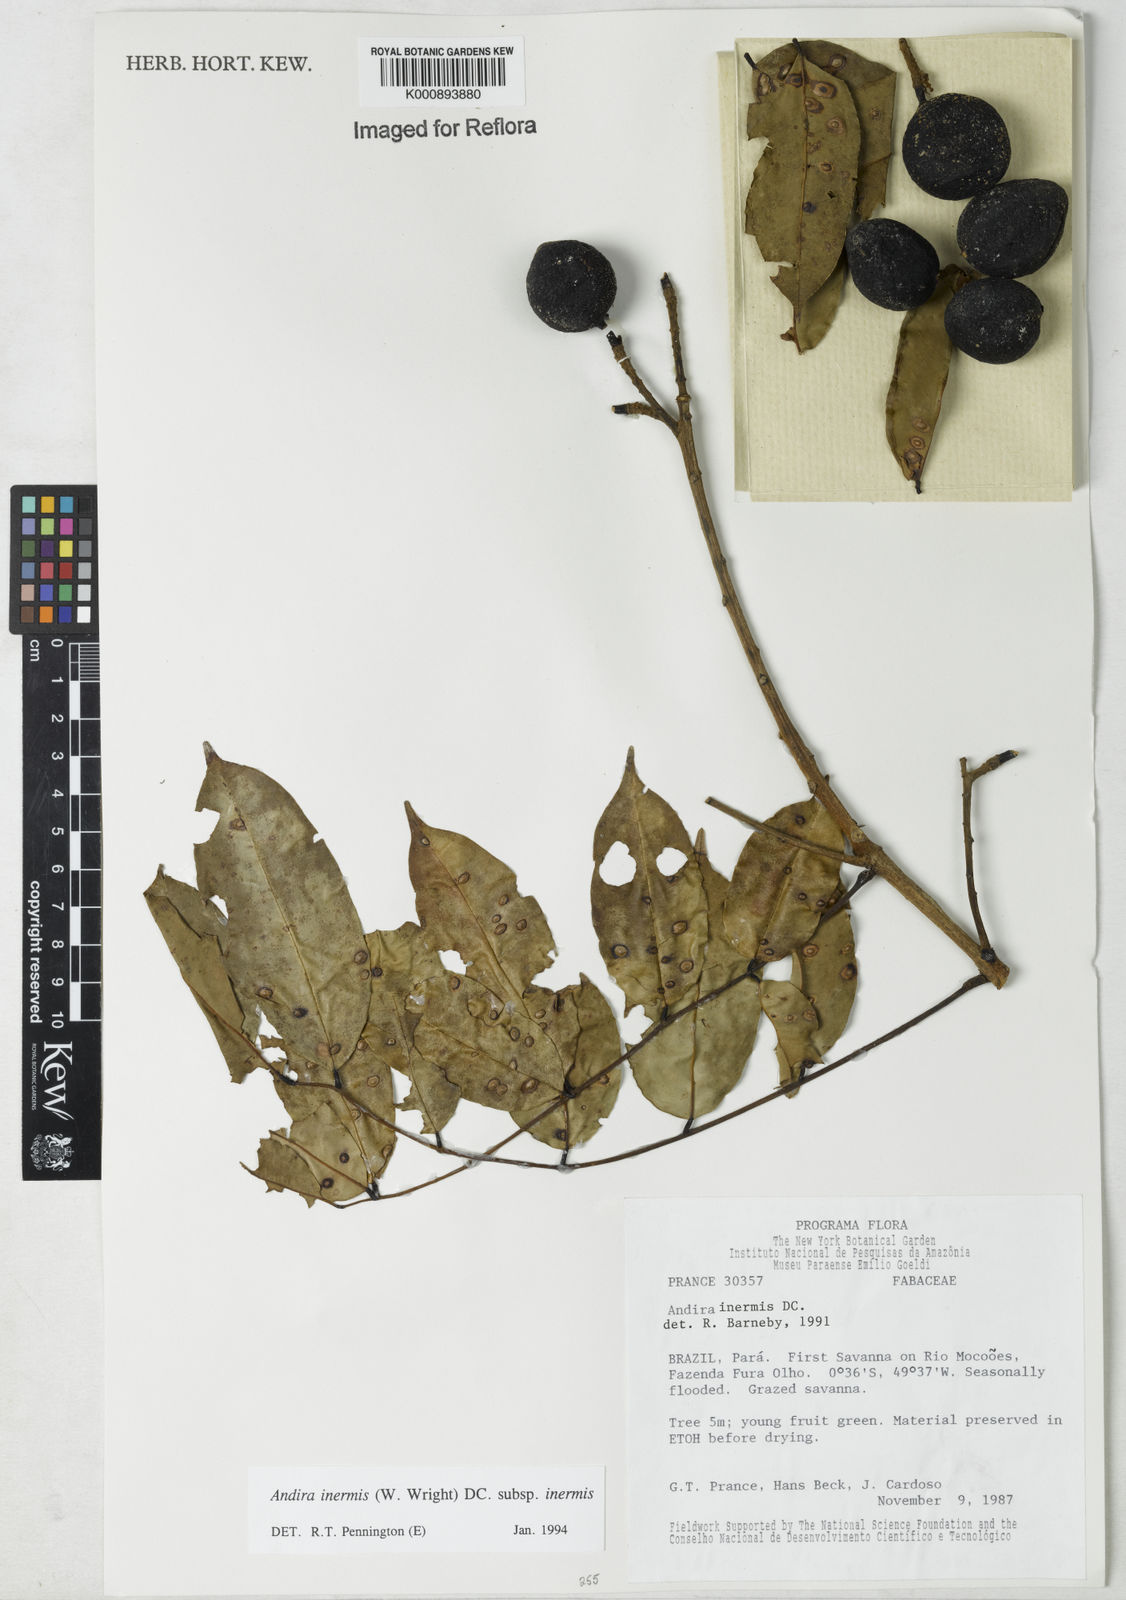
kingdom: Plantae
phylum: Tracheophyta
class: Magnoliopsida
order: Fabales
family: Fabaceae
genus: Andira
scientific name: Andira inermis
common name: Angelin
